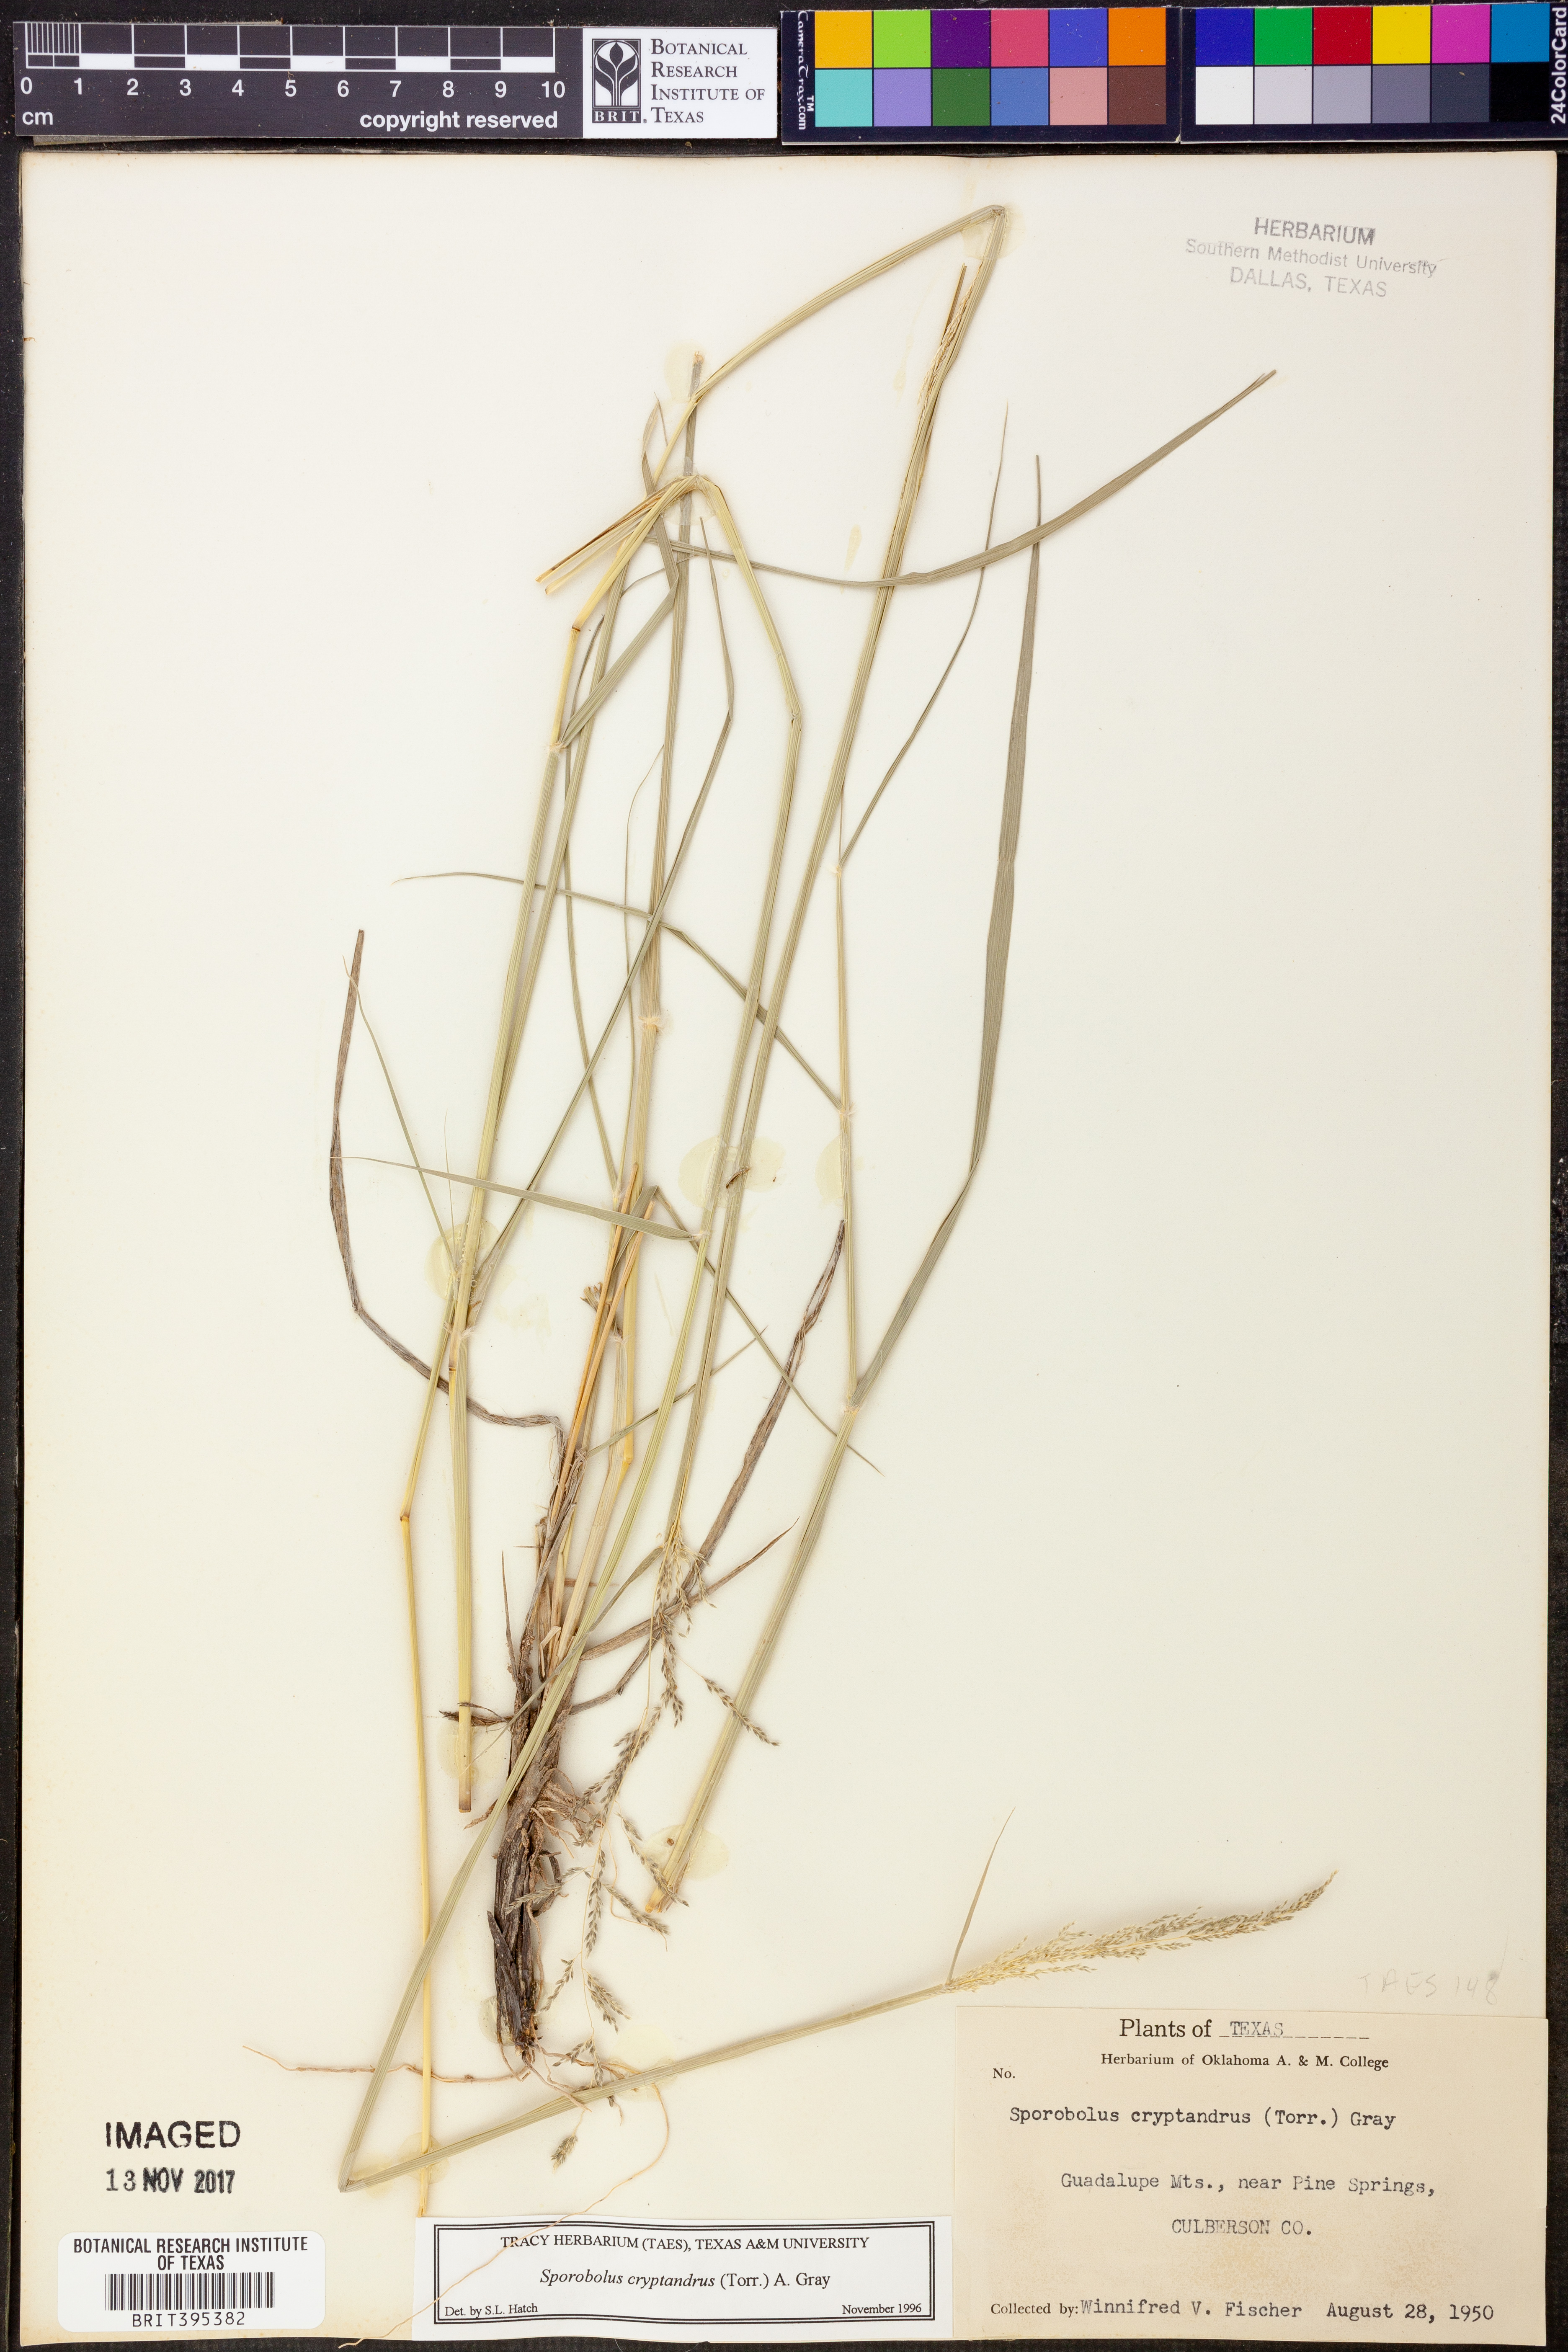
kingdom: Plantae
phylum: Tracheophyta
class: Liliopsida
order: Poales
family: Poaceae
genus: Sporobolus
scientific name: Sporobolus cryptandrus
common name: Sand dropseed
